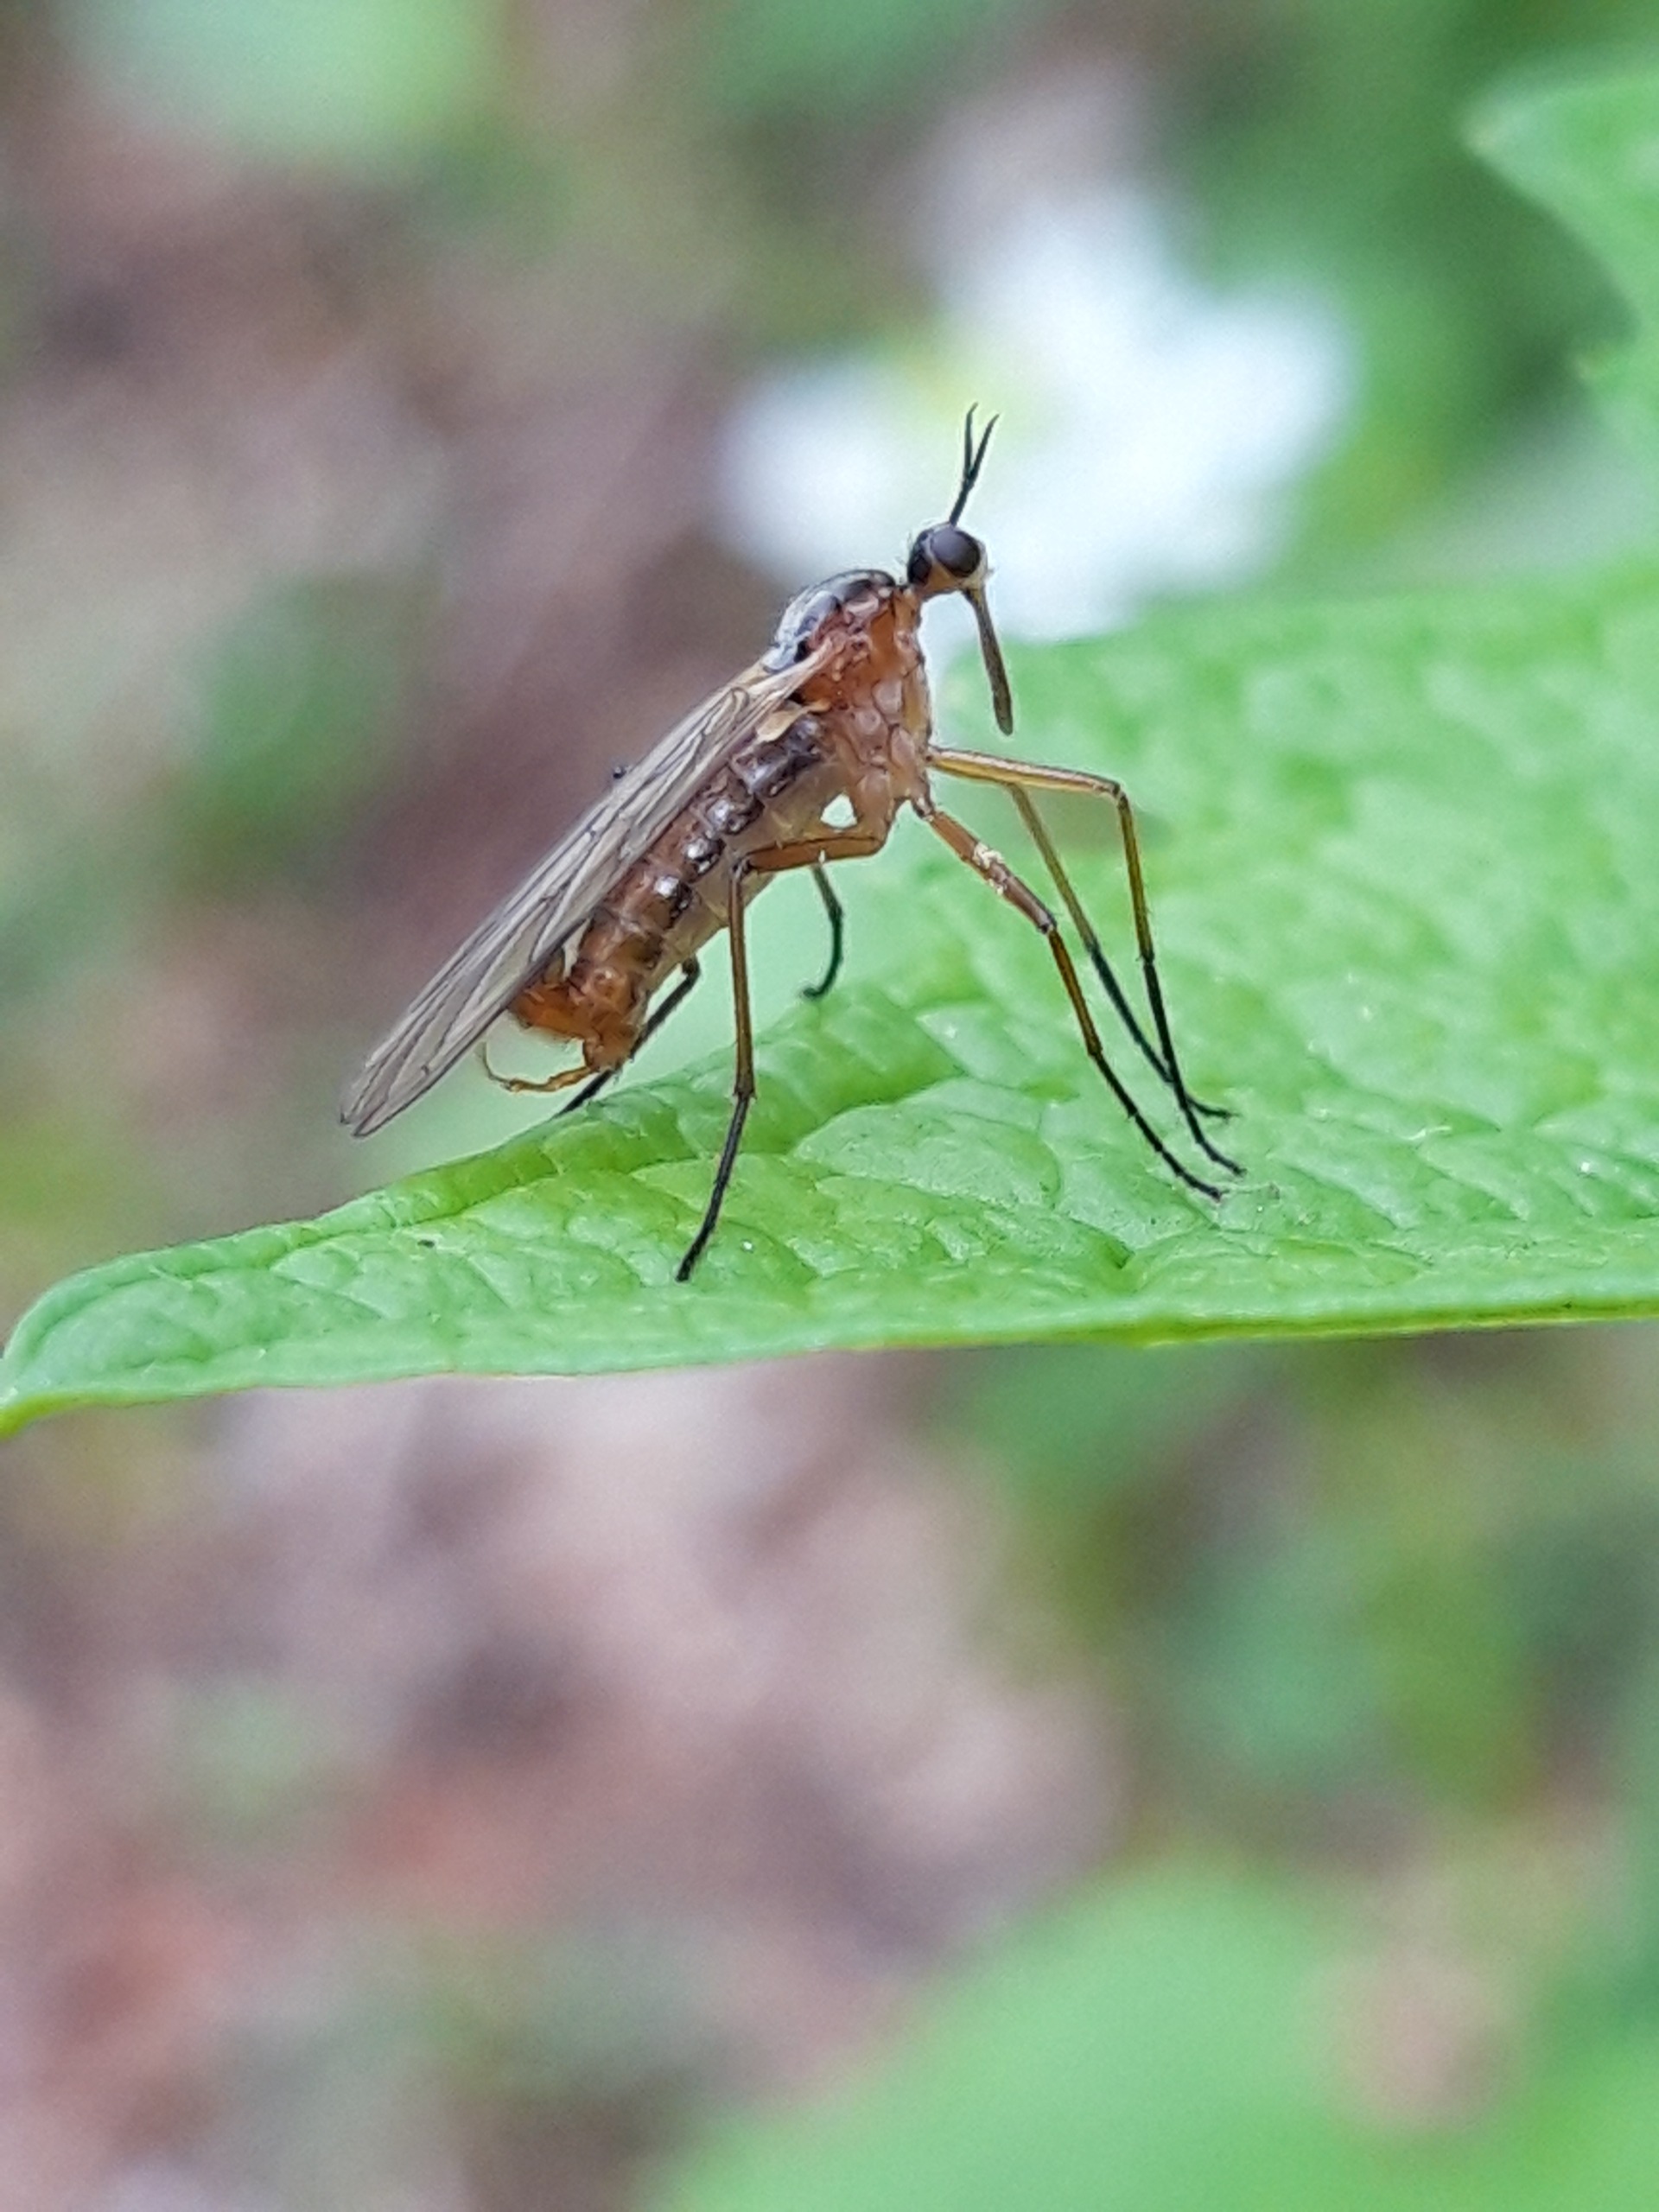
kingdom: Animalia
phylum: Arthropoda
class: Insecta
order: Diptera
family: Empididae
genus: Empis
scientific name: Empis trigramma
